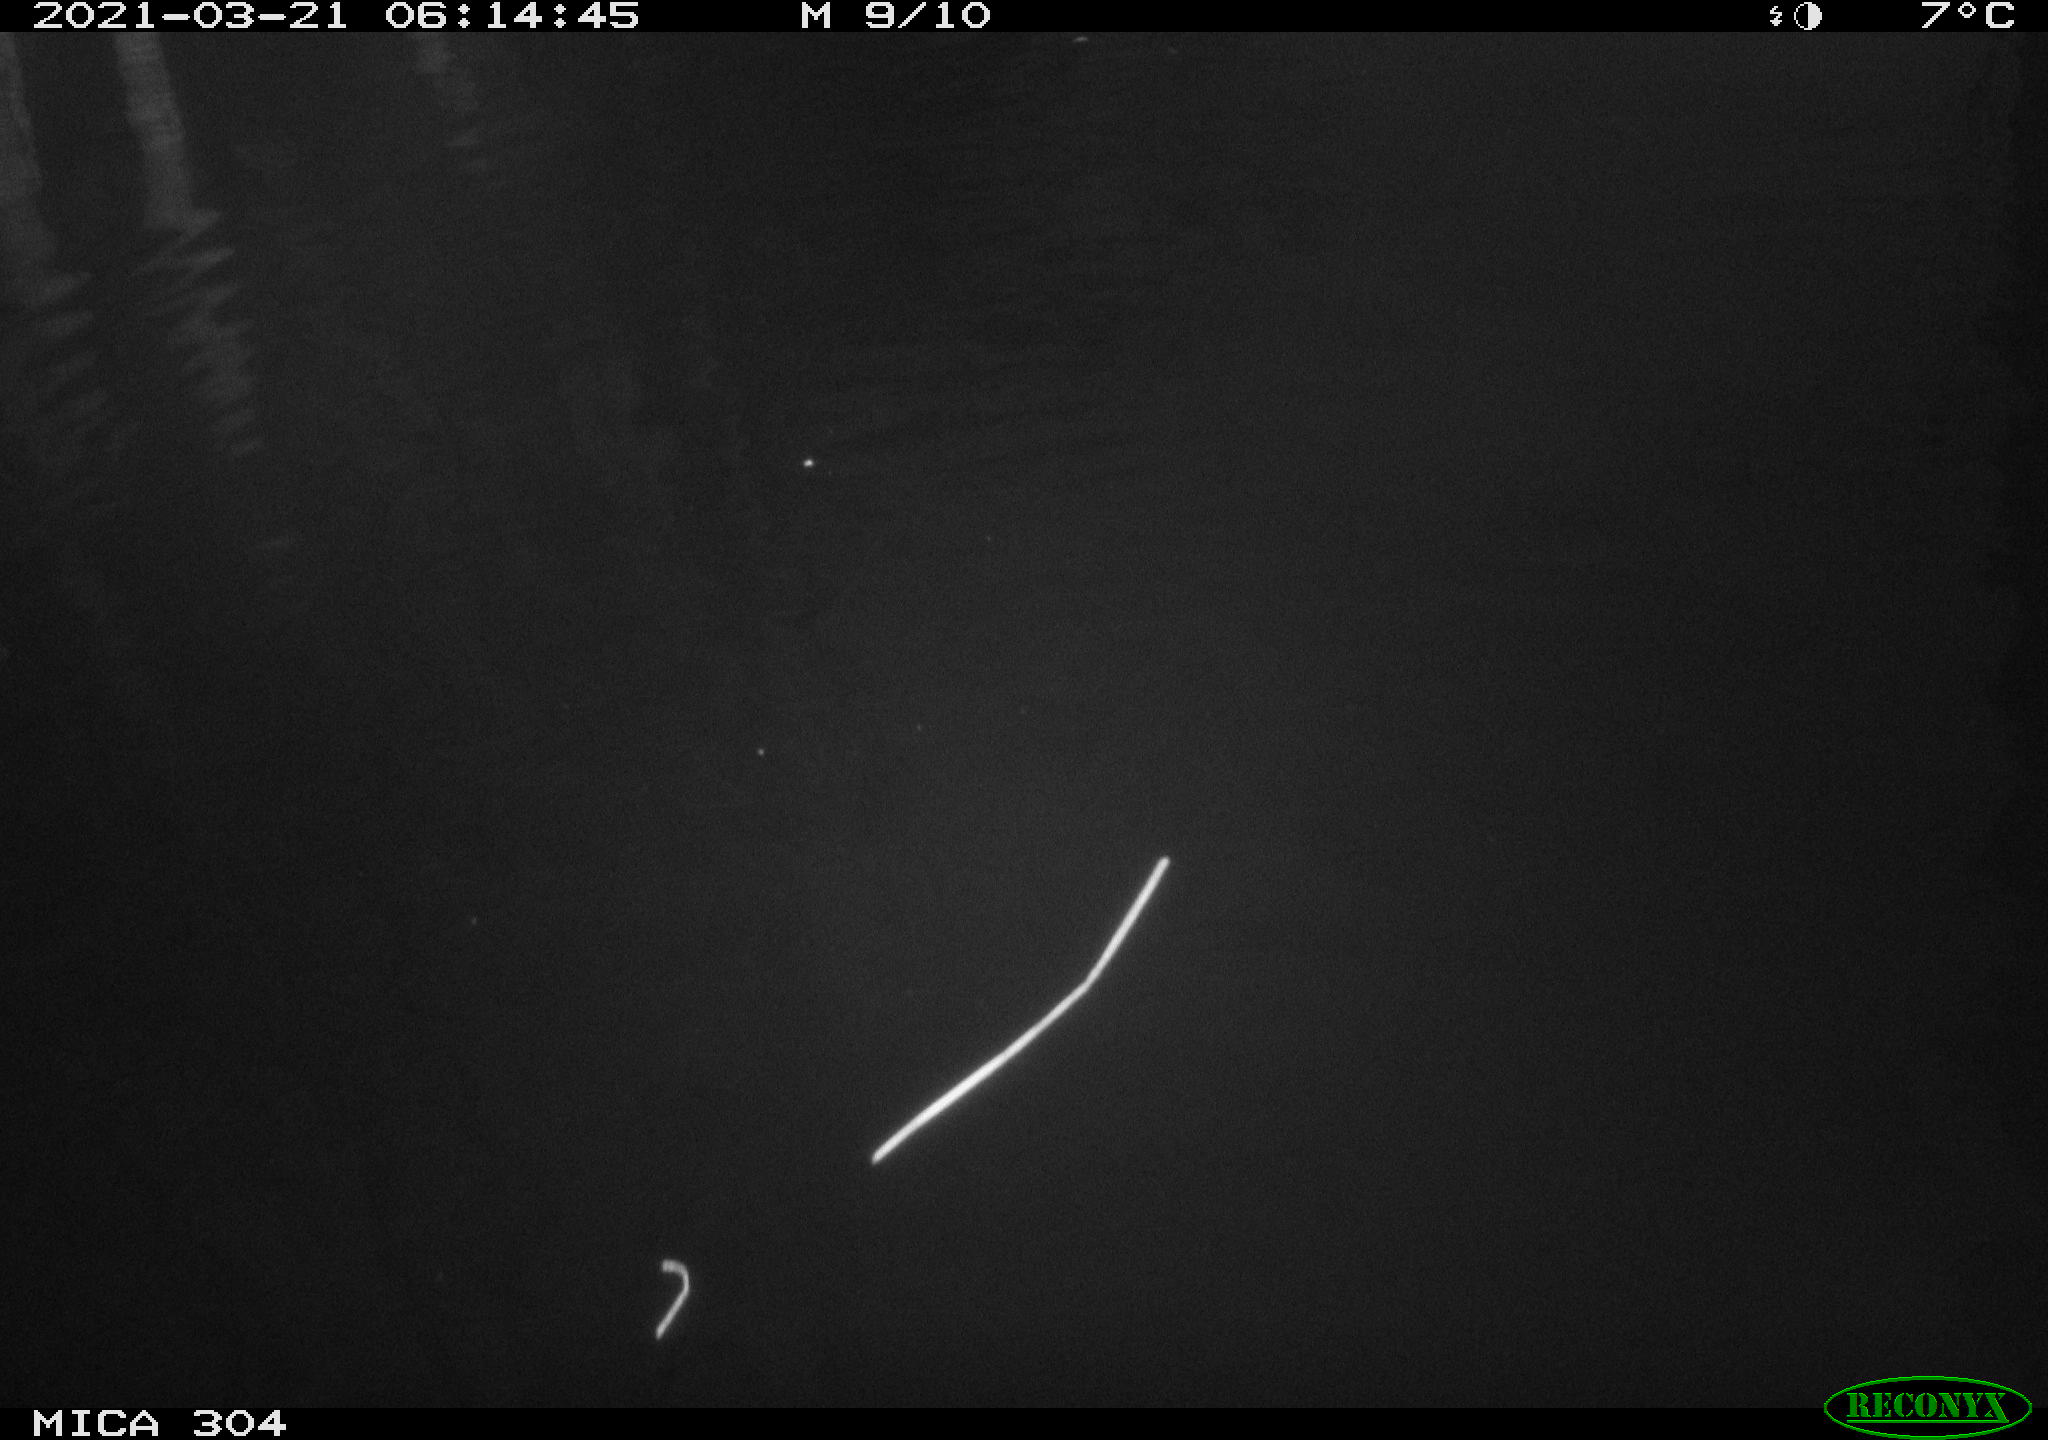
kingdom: Animalia
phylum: Chordata
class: Aves
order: Gruiformes
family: Rallidae
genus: Fulica
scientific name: Fulica atra
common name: Eurasian coot
